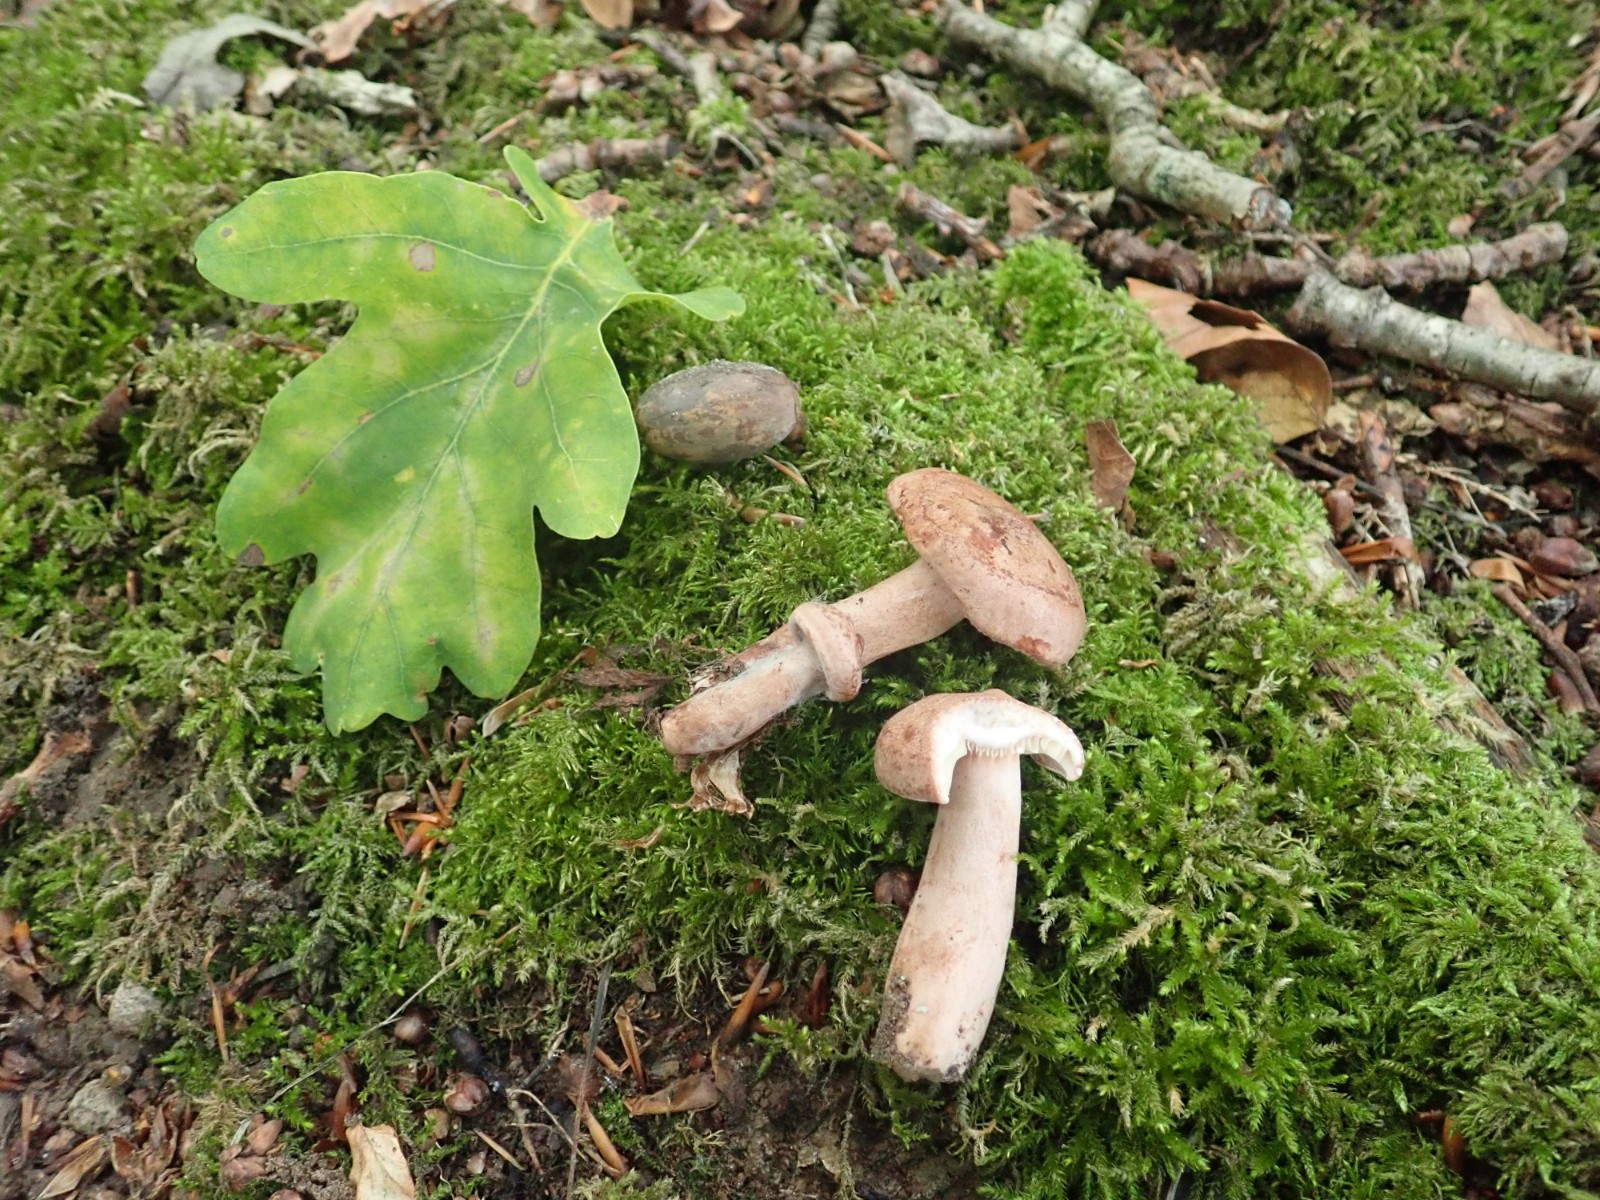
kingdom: Fungi
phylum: Basidiomycota
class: Agaricomycetes
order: Russulales
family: Russulaceae
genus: Lactarius
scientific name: Lactarius quietus
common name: ege-mælkehat
